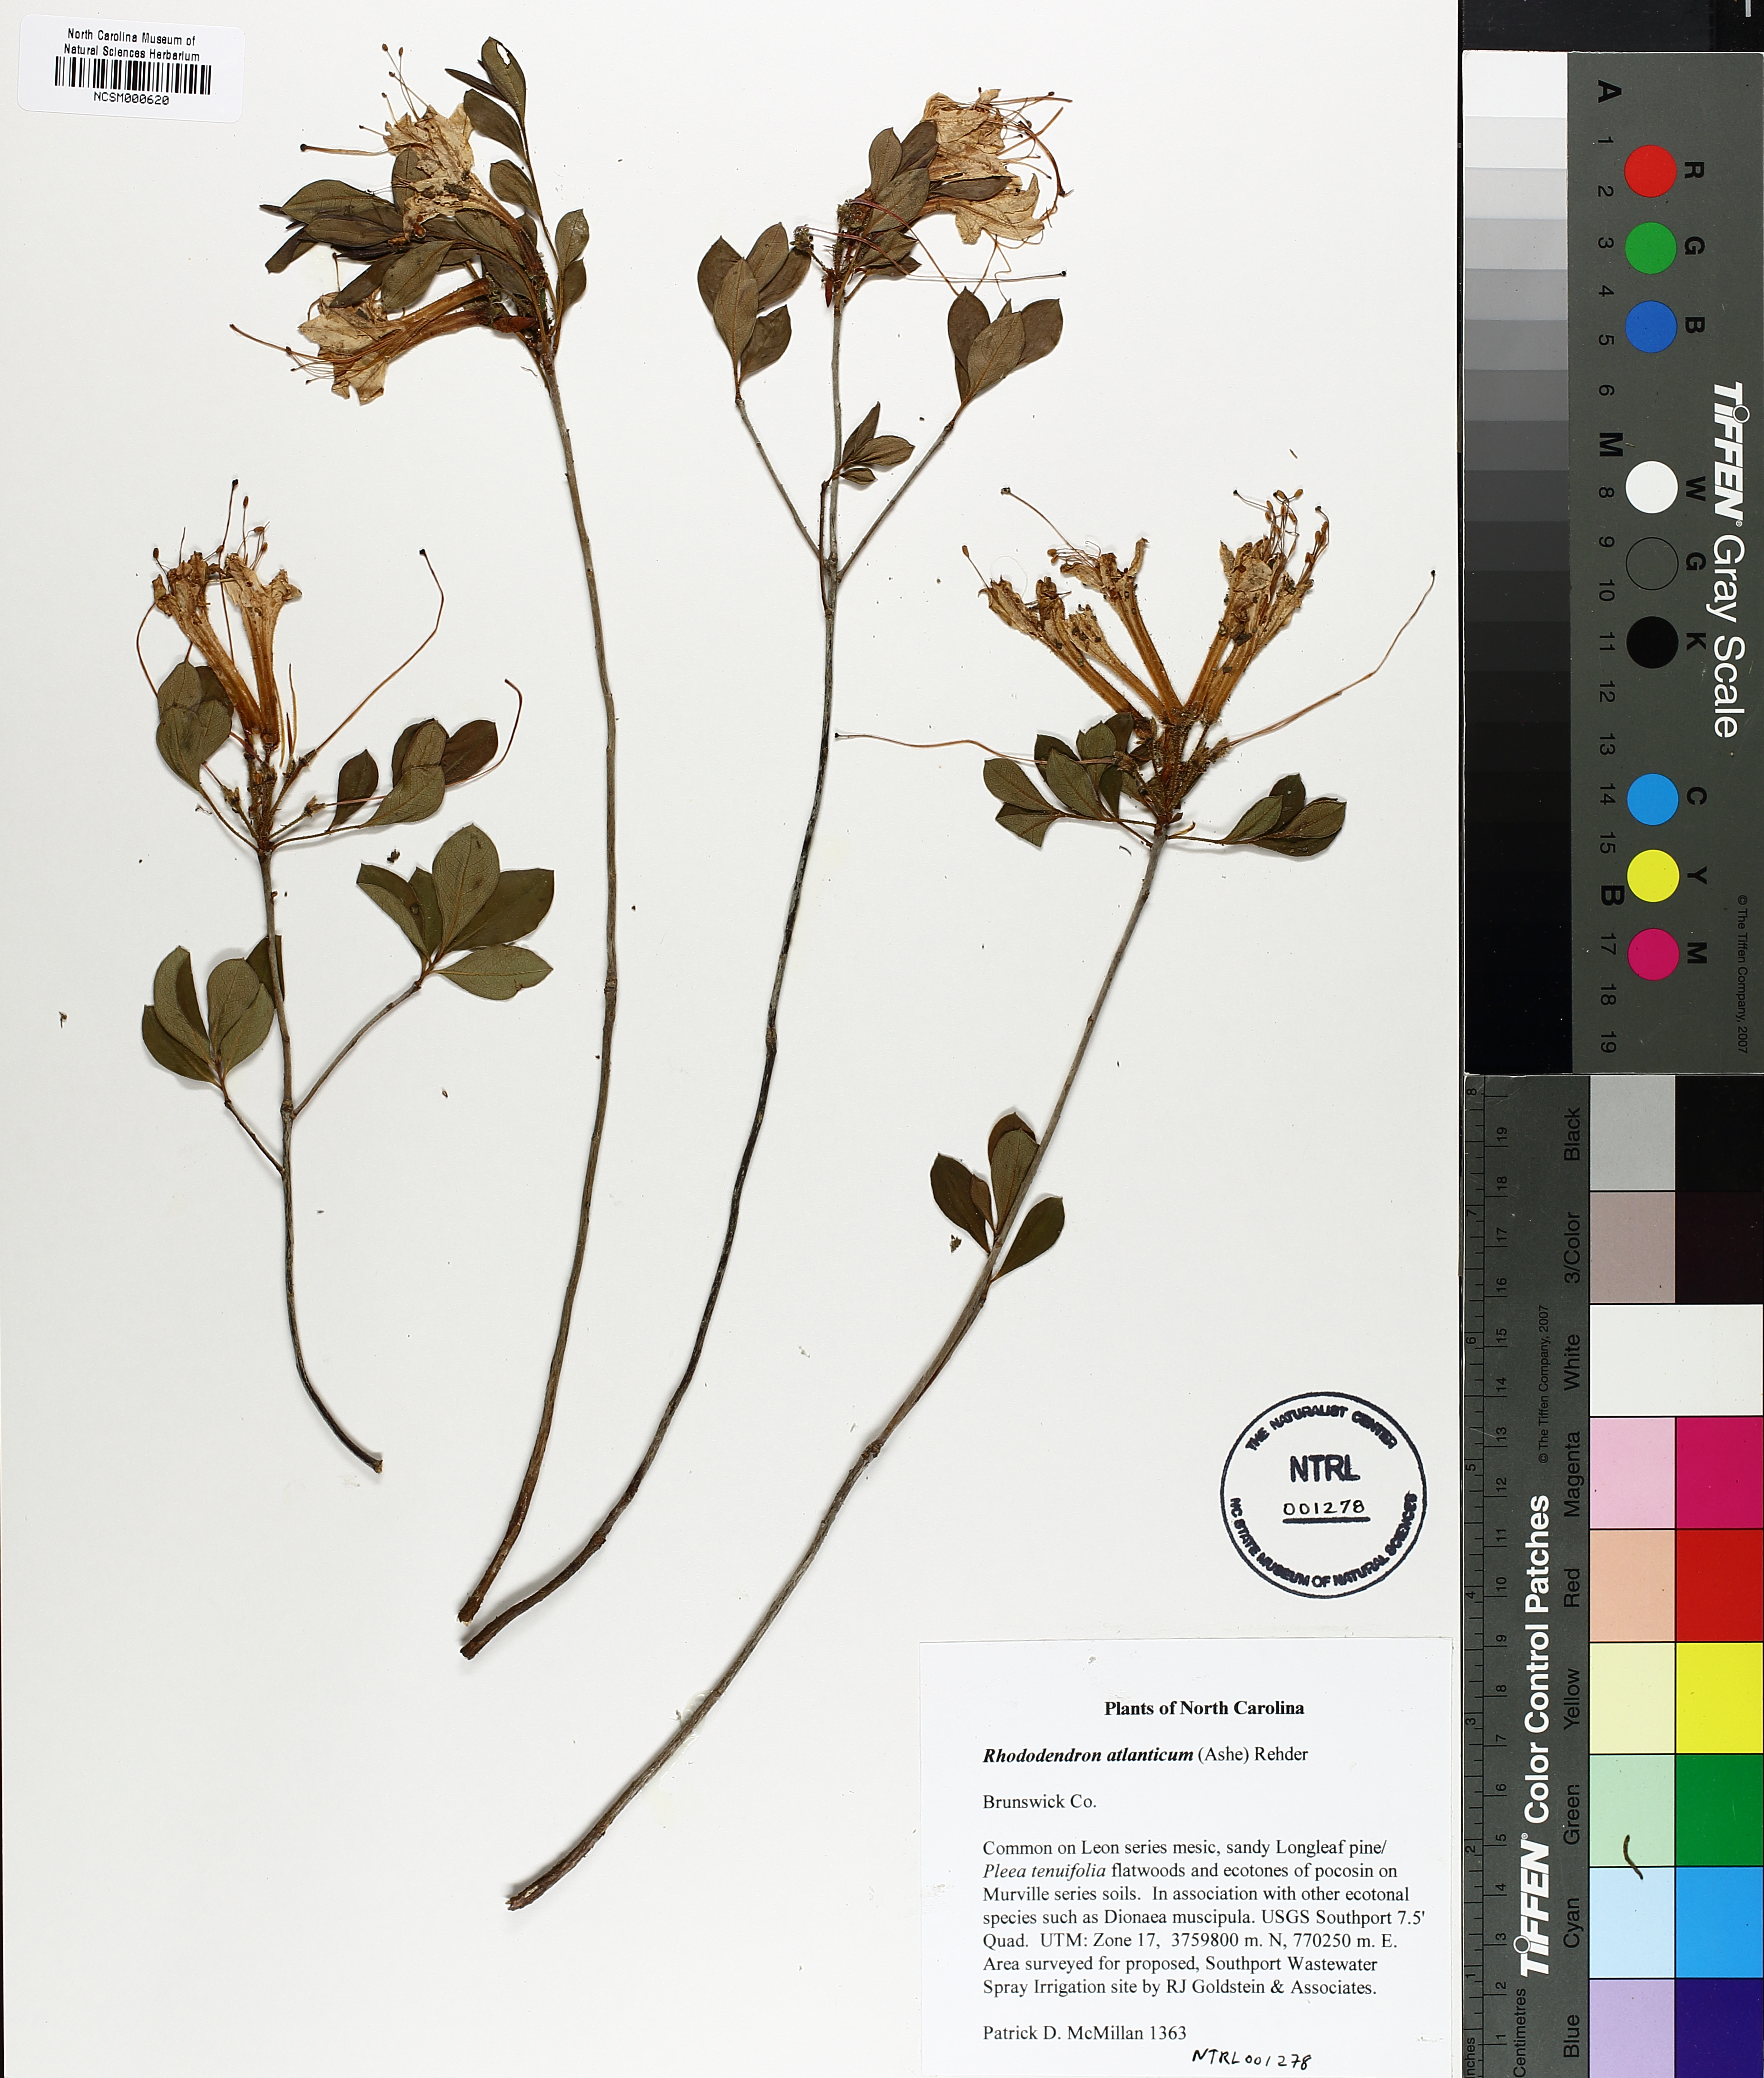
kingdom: Plantae
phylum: Tracheophyta
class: Magnoliopsida
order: Ericales
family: Ericaceae
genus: Rhododendron
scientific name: Rhododendron atlanticum
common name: Dwarf azalea
